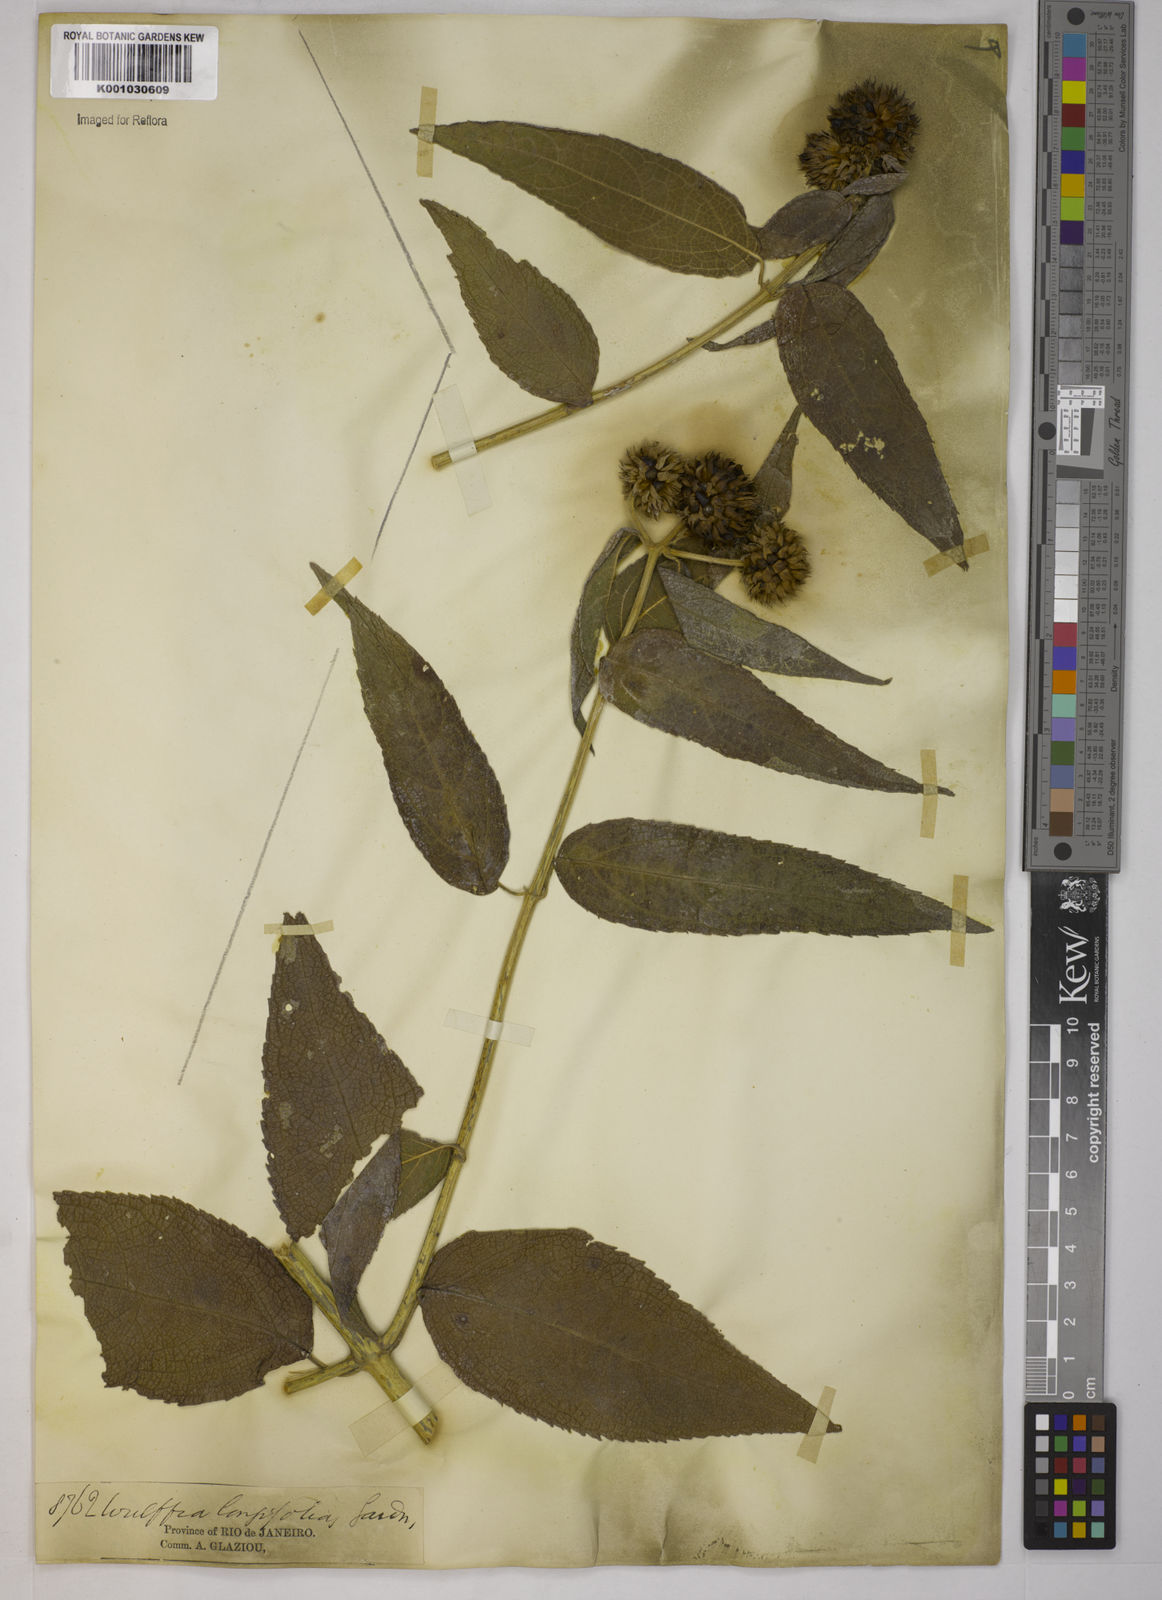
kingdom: Plantae
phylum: Tracheophyta
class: Magnoliopsida
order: Asterales
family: Asteraceae
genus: Tilesia
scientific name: Tilesia baccata
